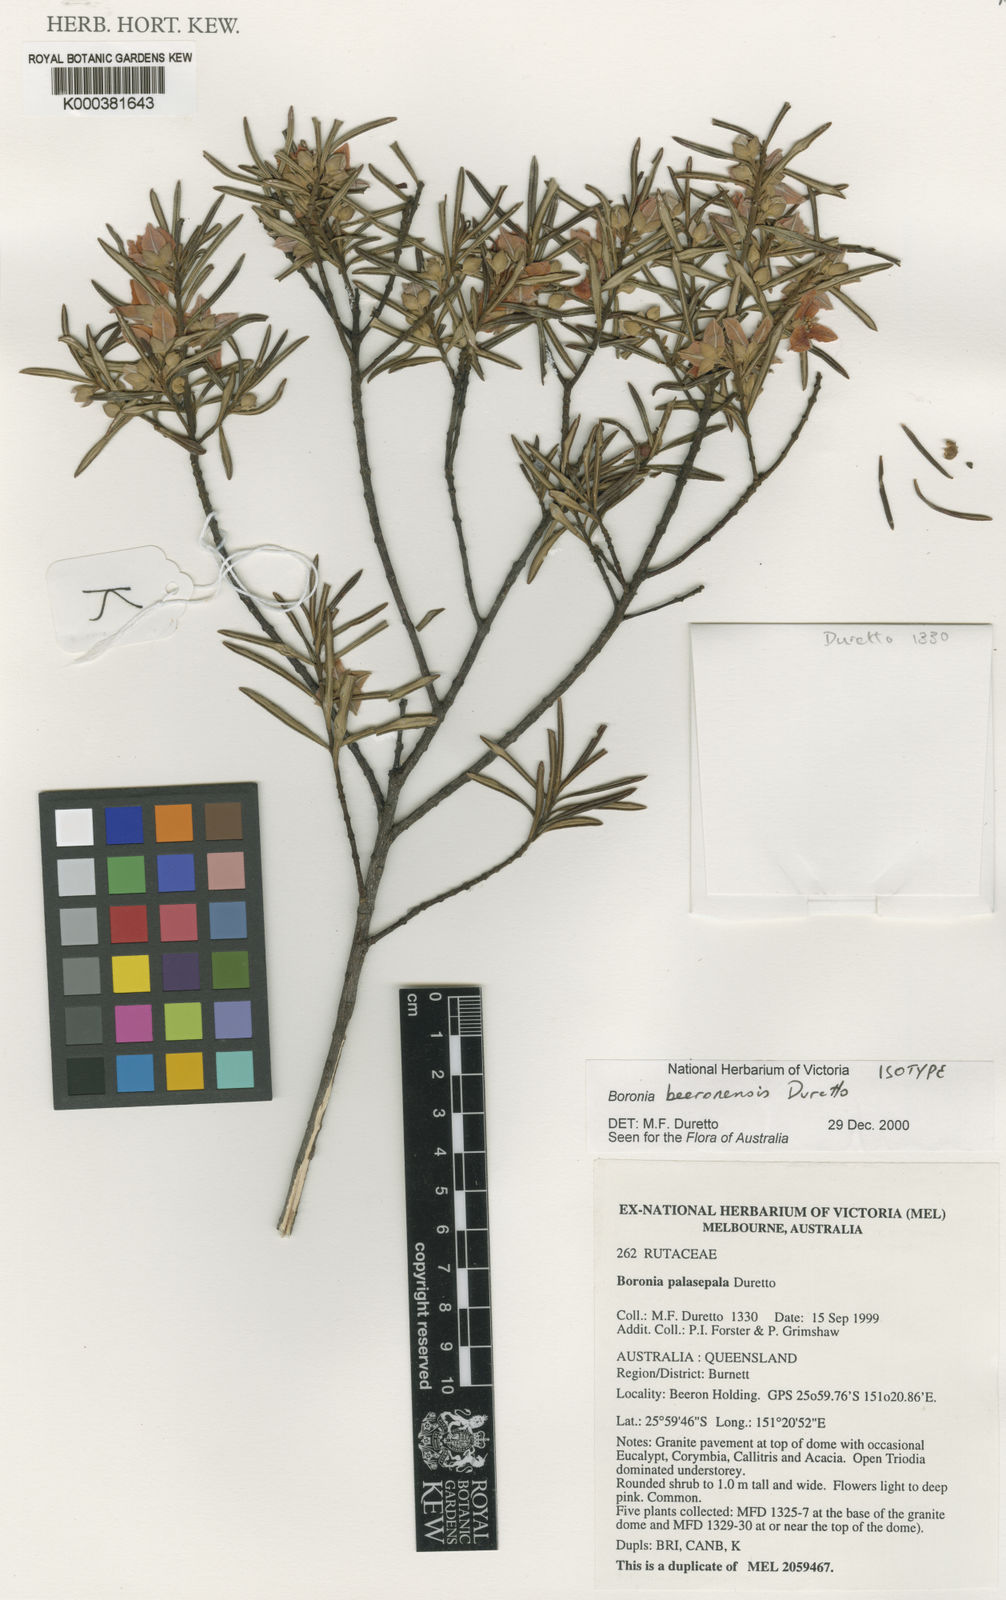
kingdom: Plantae
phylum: Tracheophyta
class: Magnoliopsida
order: Sapindales
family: Rutaceae
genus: Boronia
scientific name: Boronia beeronensis
